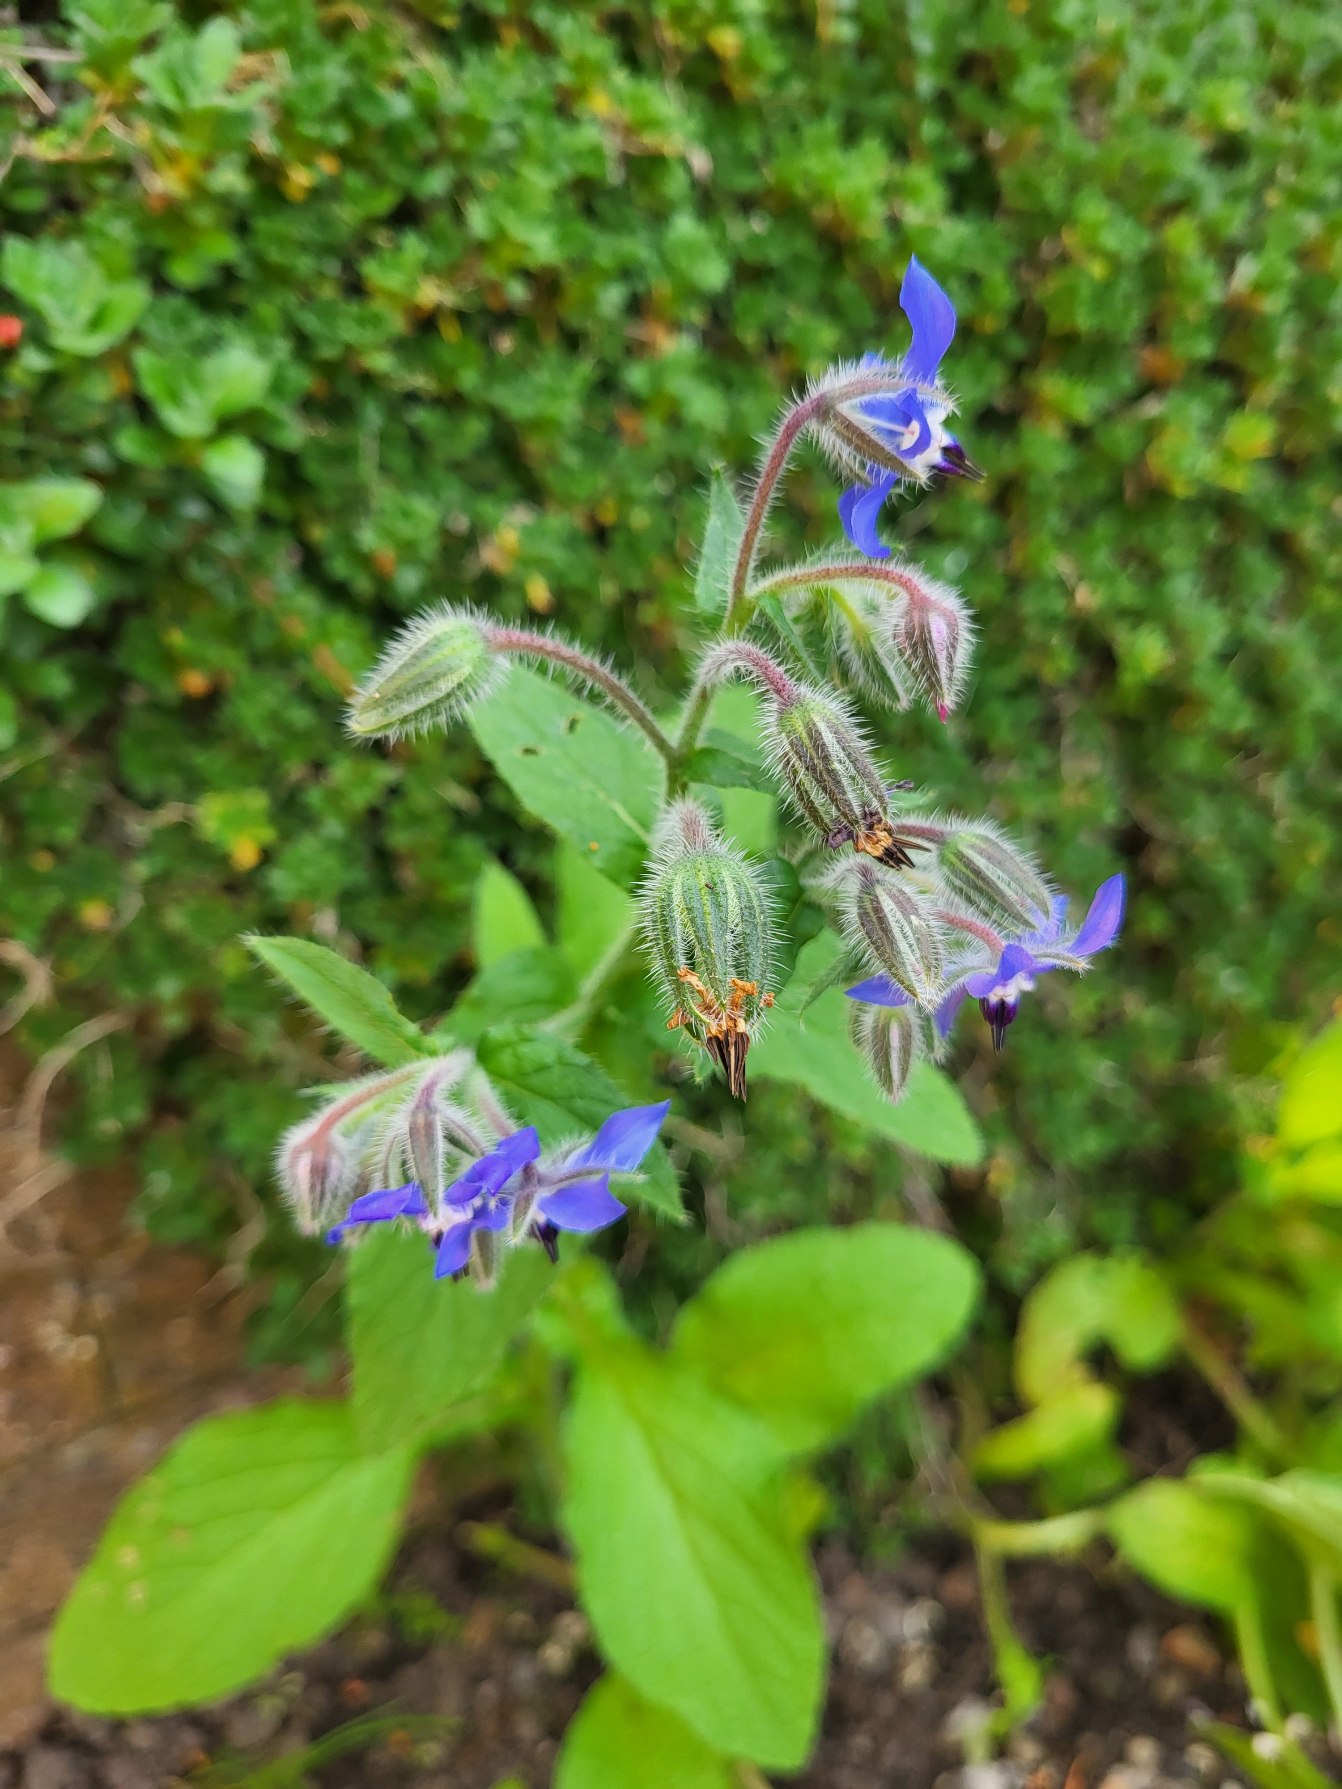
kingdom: Plantae
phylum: Tracheophyta
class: Magnoliopsida
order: Boraginales
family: Boraginaceae
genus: Borago
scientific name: Borago officinalis
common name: Hjulkrone
